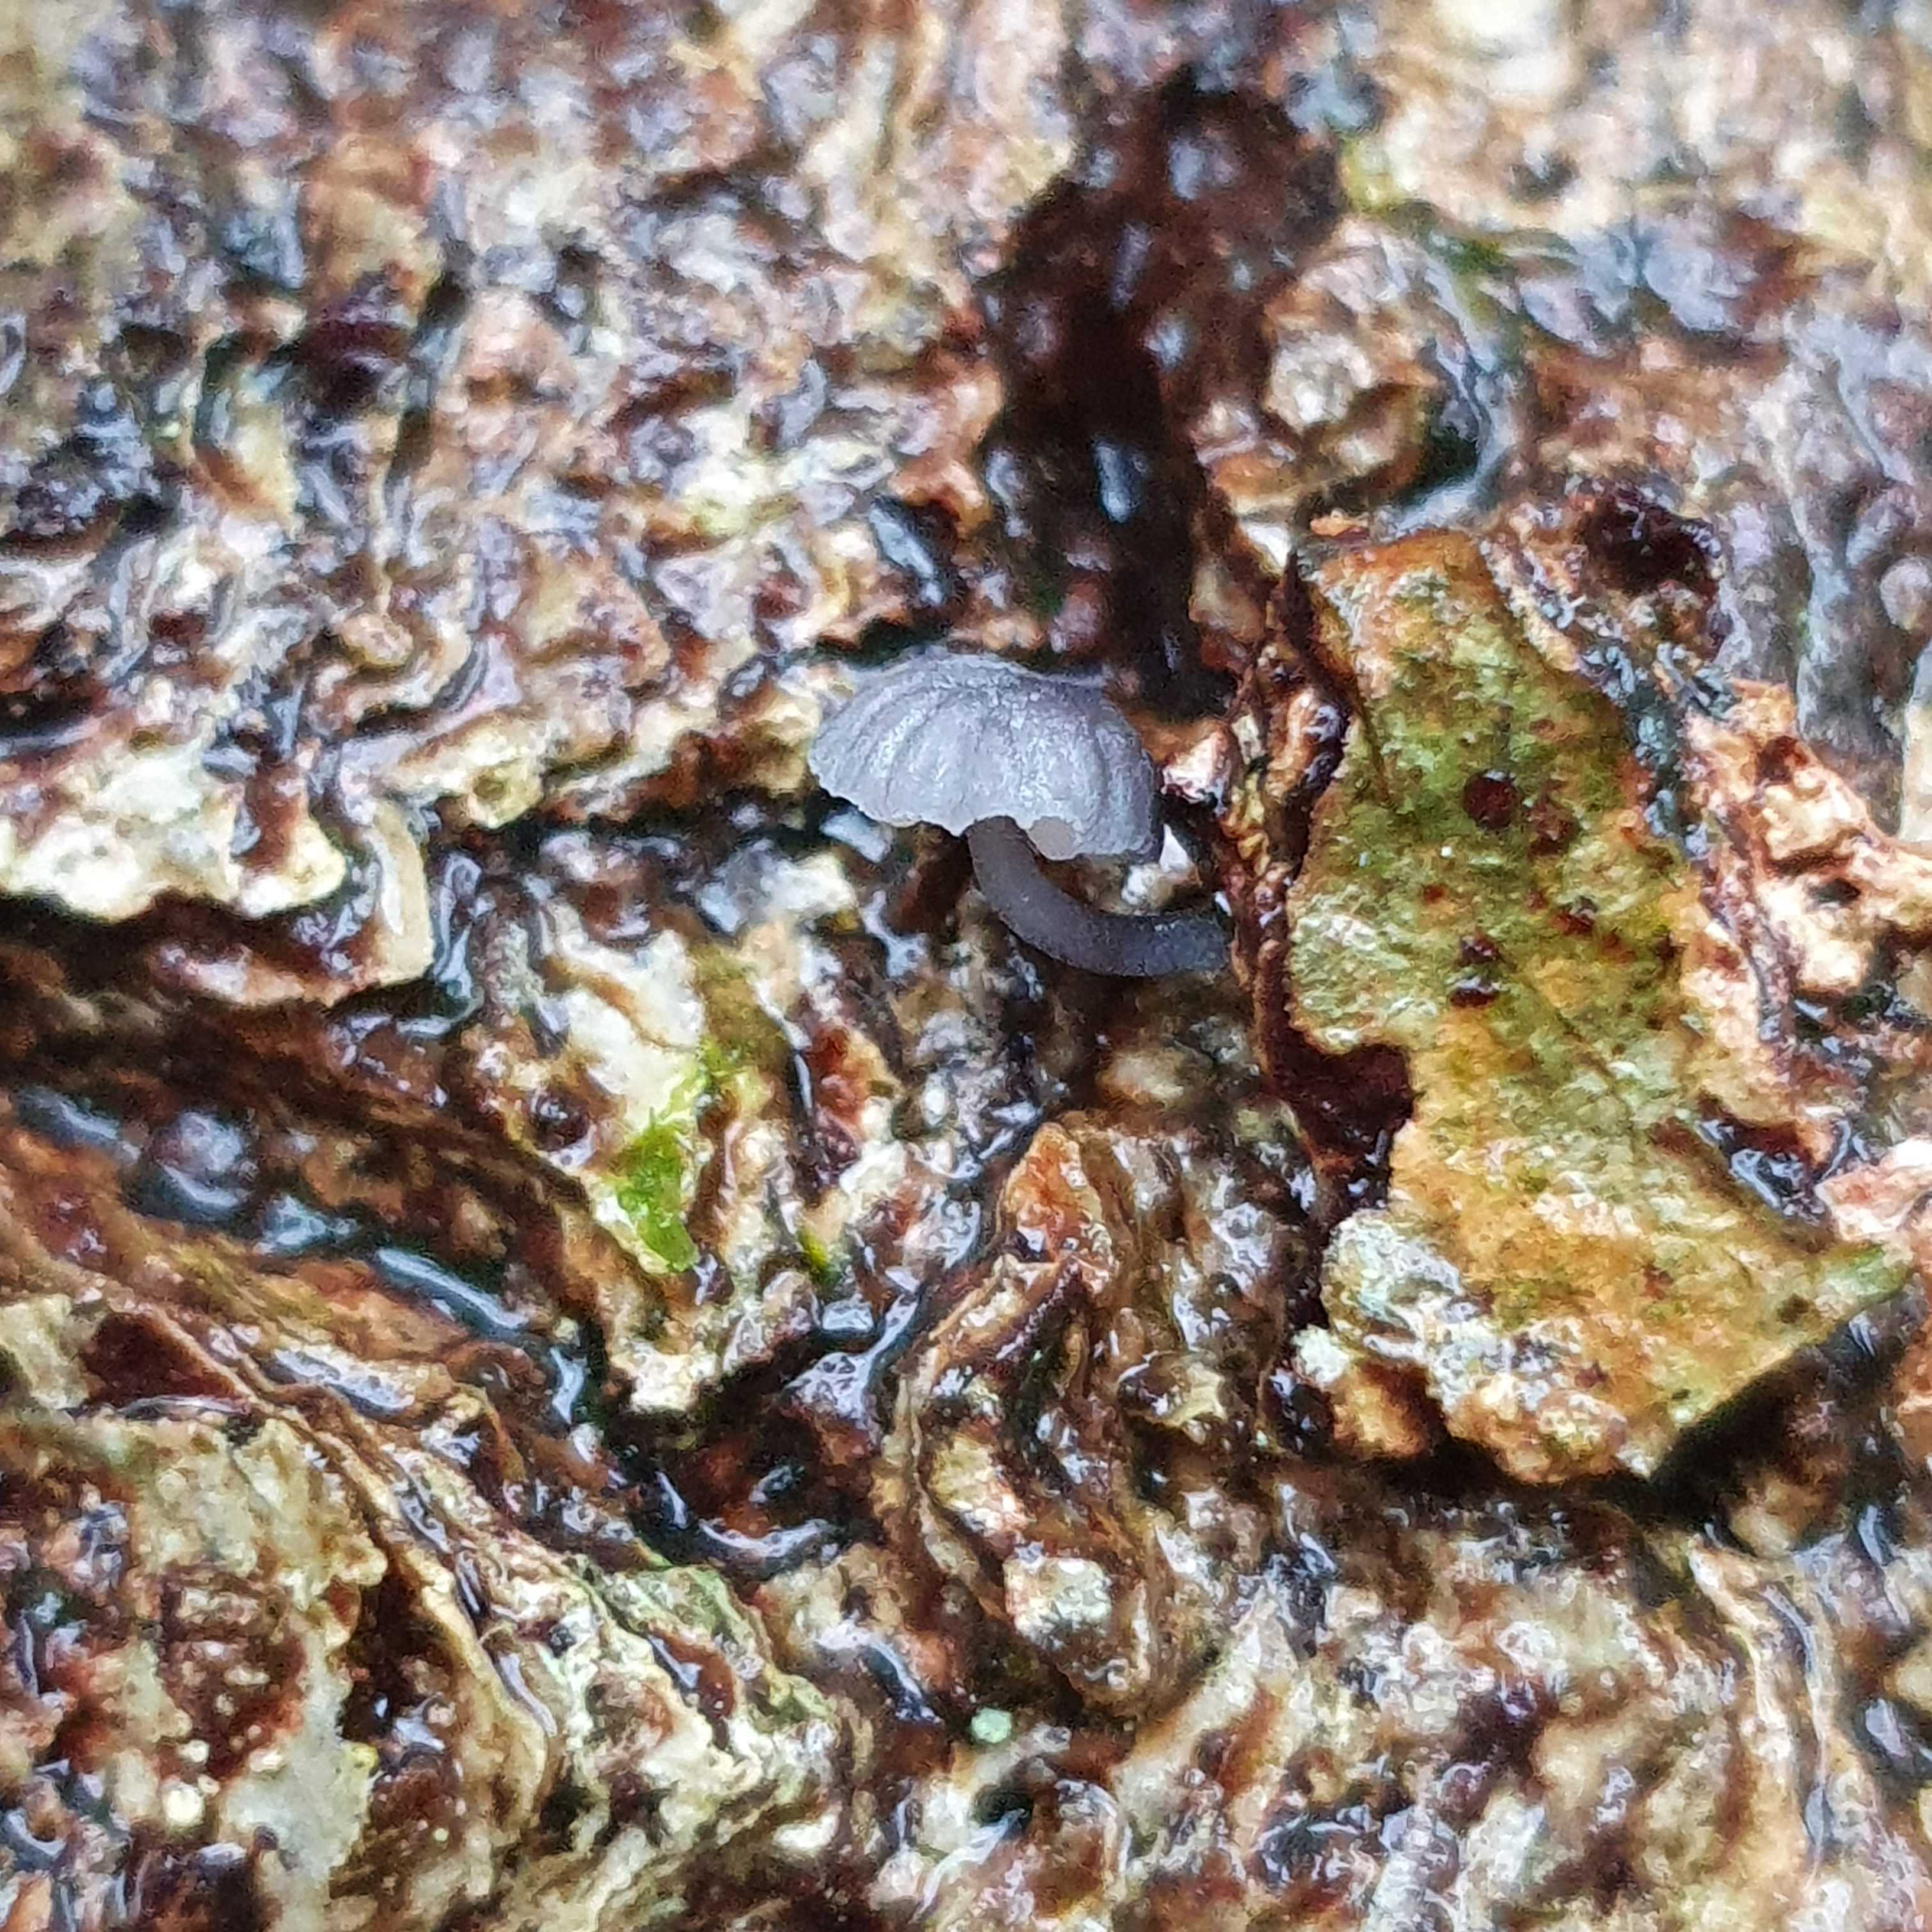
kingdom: Fungi
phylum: Basidiomycota
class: Agaricomycetes
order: Agaricales
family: Mycenaceae
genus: Mycena
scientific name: Mycena pseudocorticola
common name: gråblå bark-huesvamp
